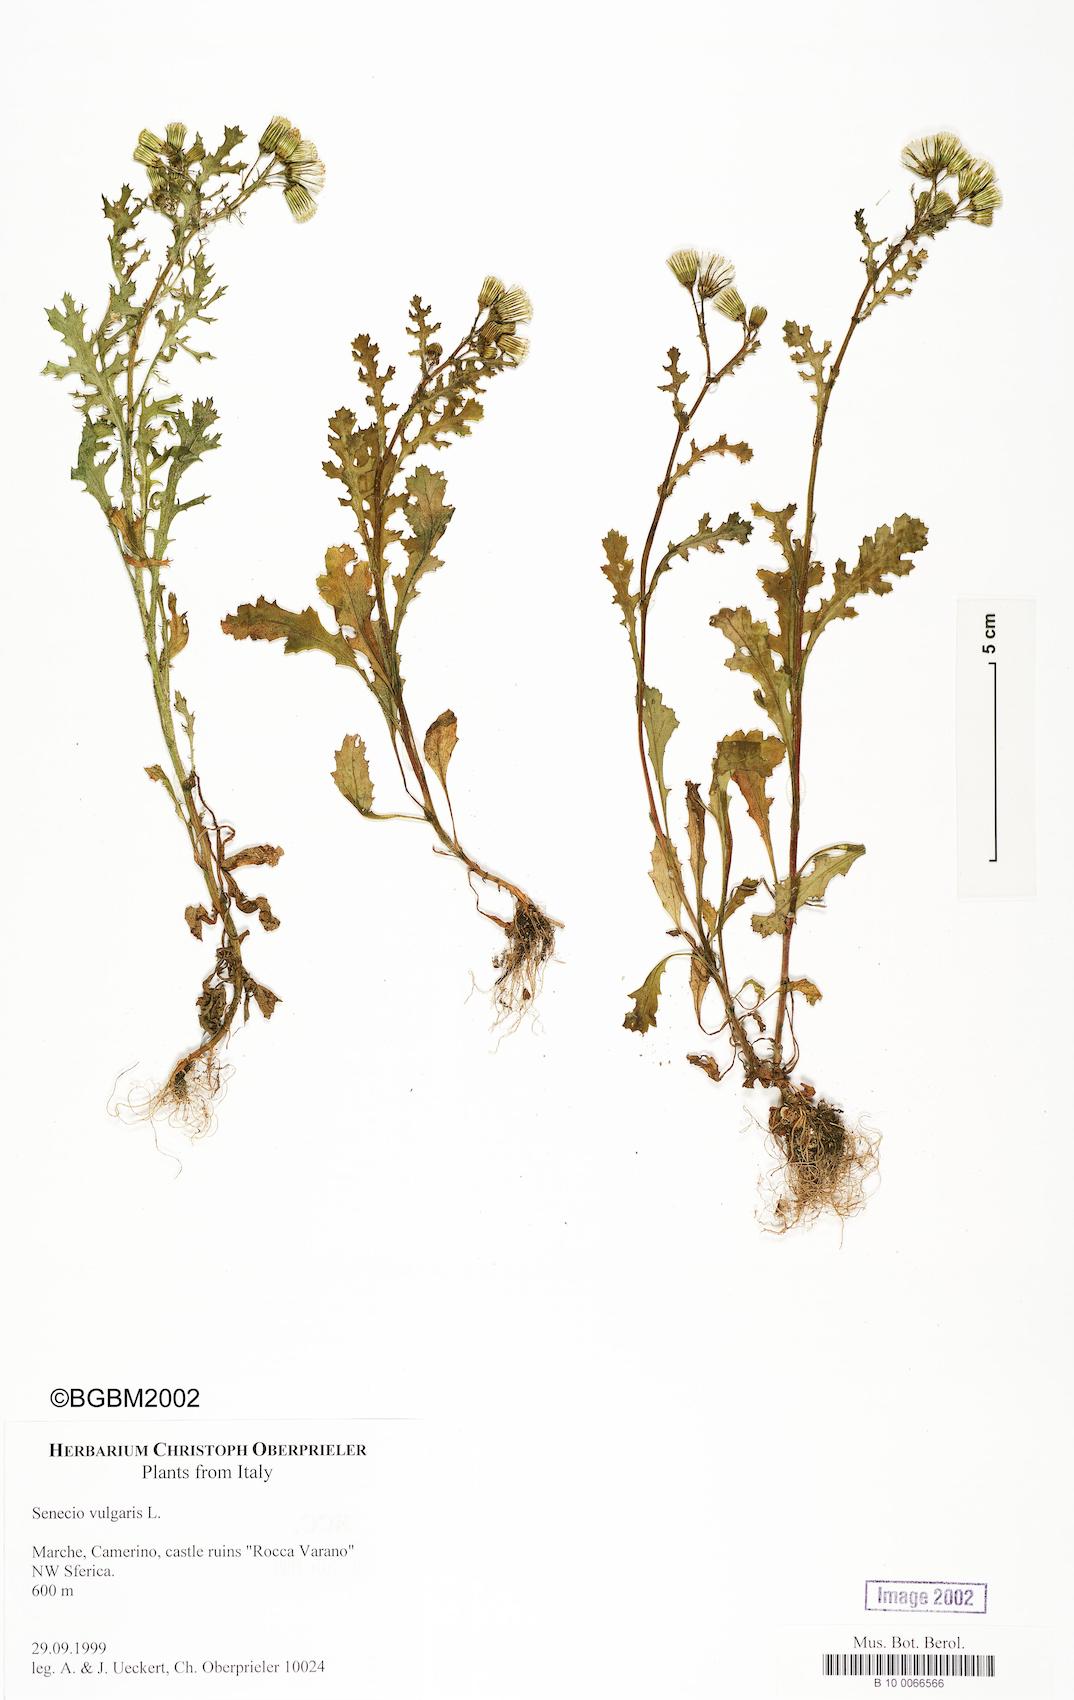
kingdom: Plantae
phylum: Tracheophyta
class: Magnoliopsida
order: Asterales
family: Asteraceae
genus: Senecio
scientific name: Senecio vulgaris
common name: Old-man-in-the-spring
